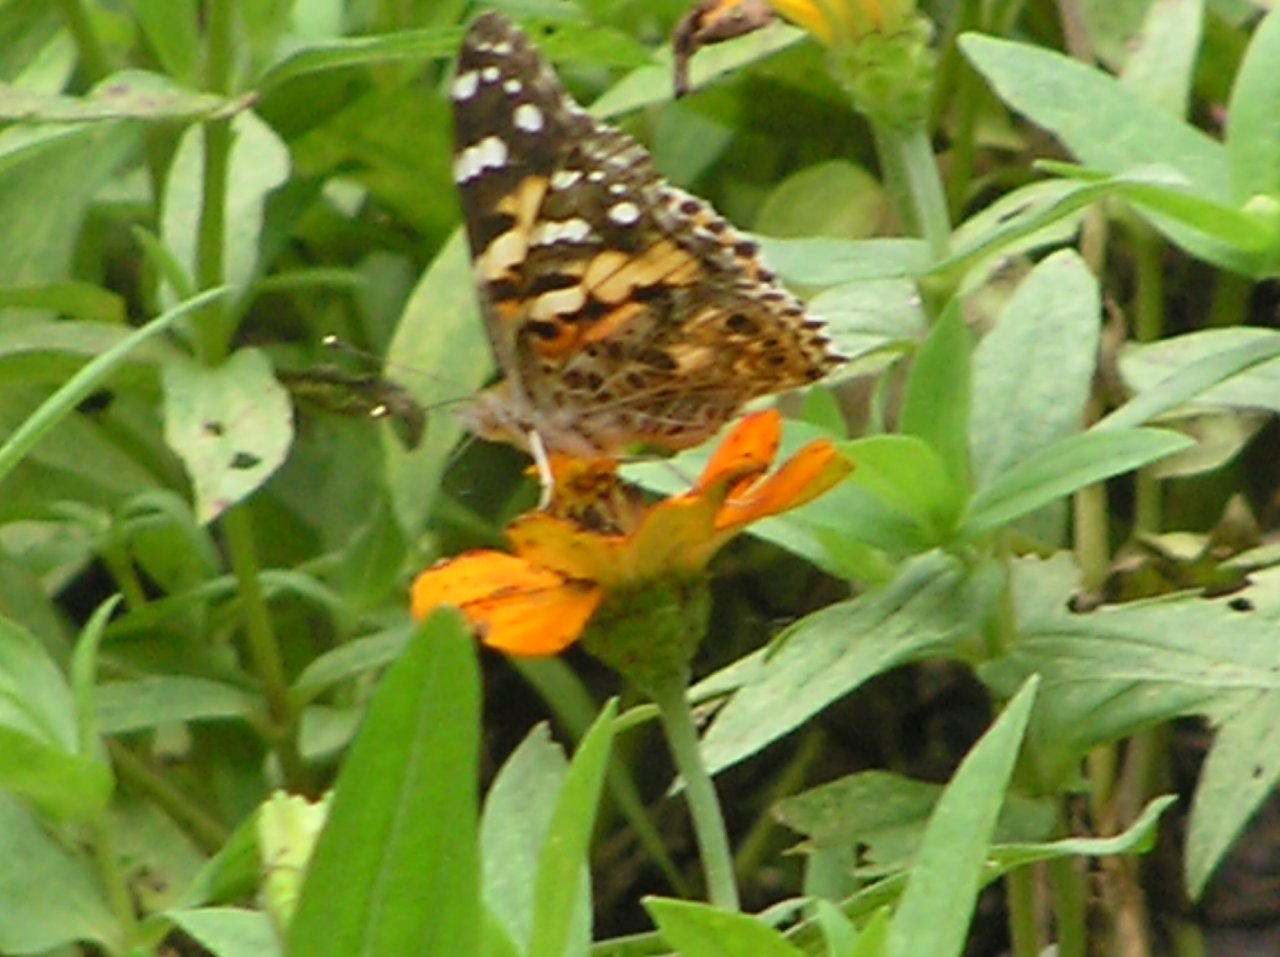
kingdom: Animalia
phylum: Arthropoda
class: Insecta
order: Lepidoptera
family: Nymphalidae
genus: Vanessa
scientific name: Vanessa cardui
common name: Painted Lady
